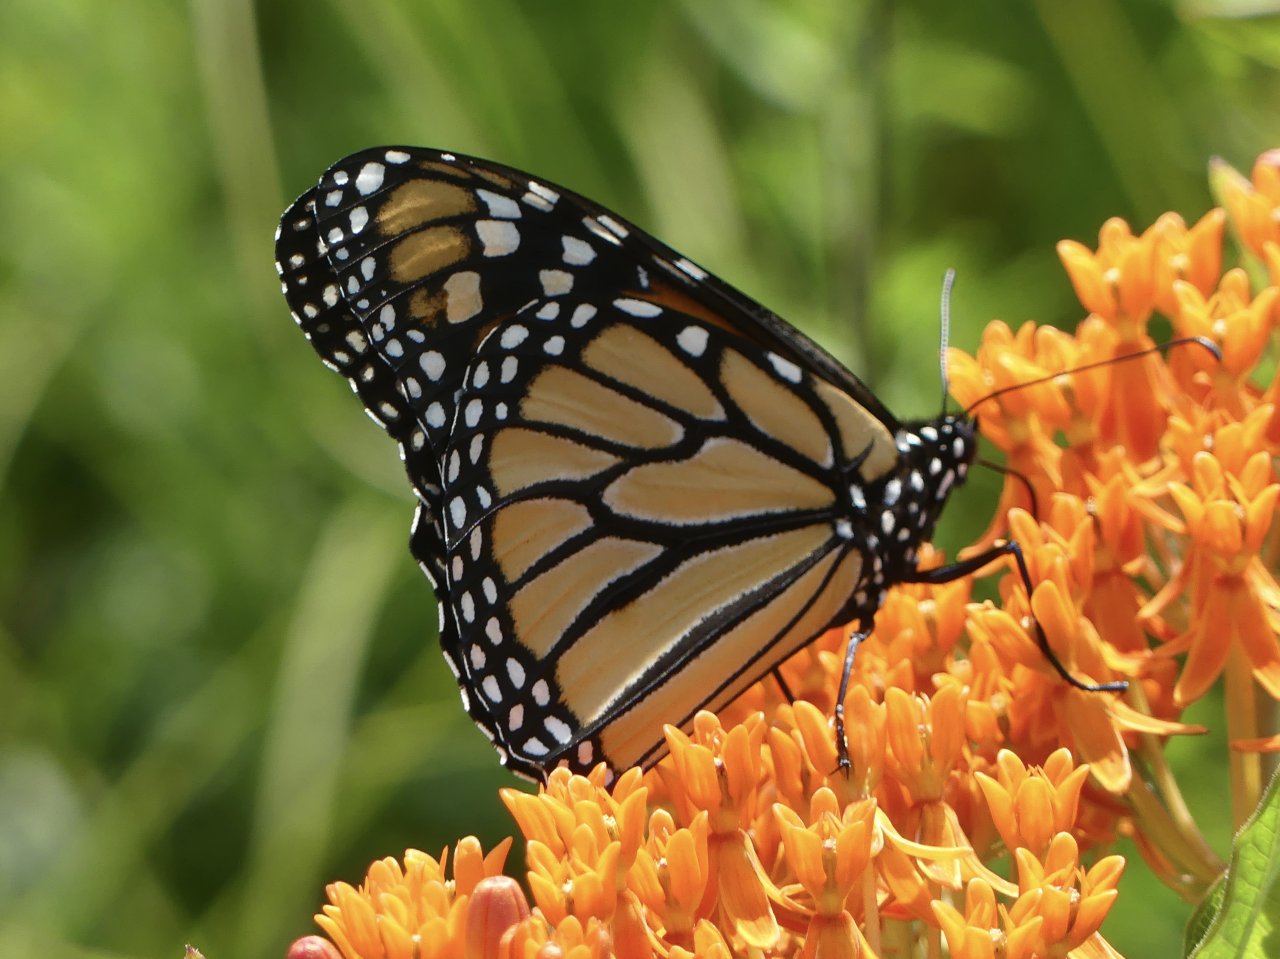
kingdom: Animalia
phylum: Arthropoda
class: Insecta
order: Lepidoptera
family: Nymphalidae
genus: Danaus
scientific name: Danaus plexippus
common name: Monarch
